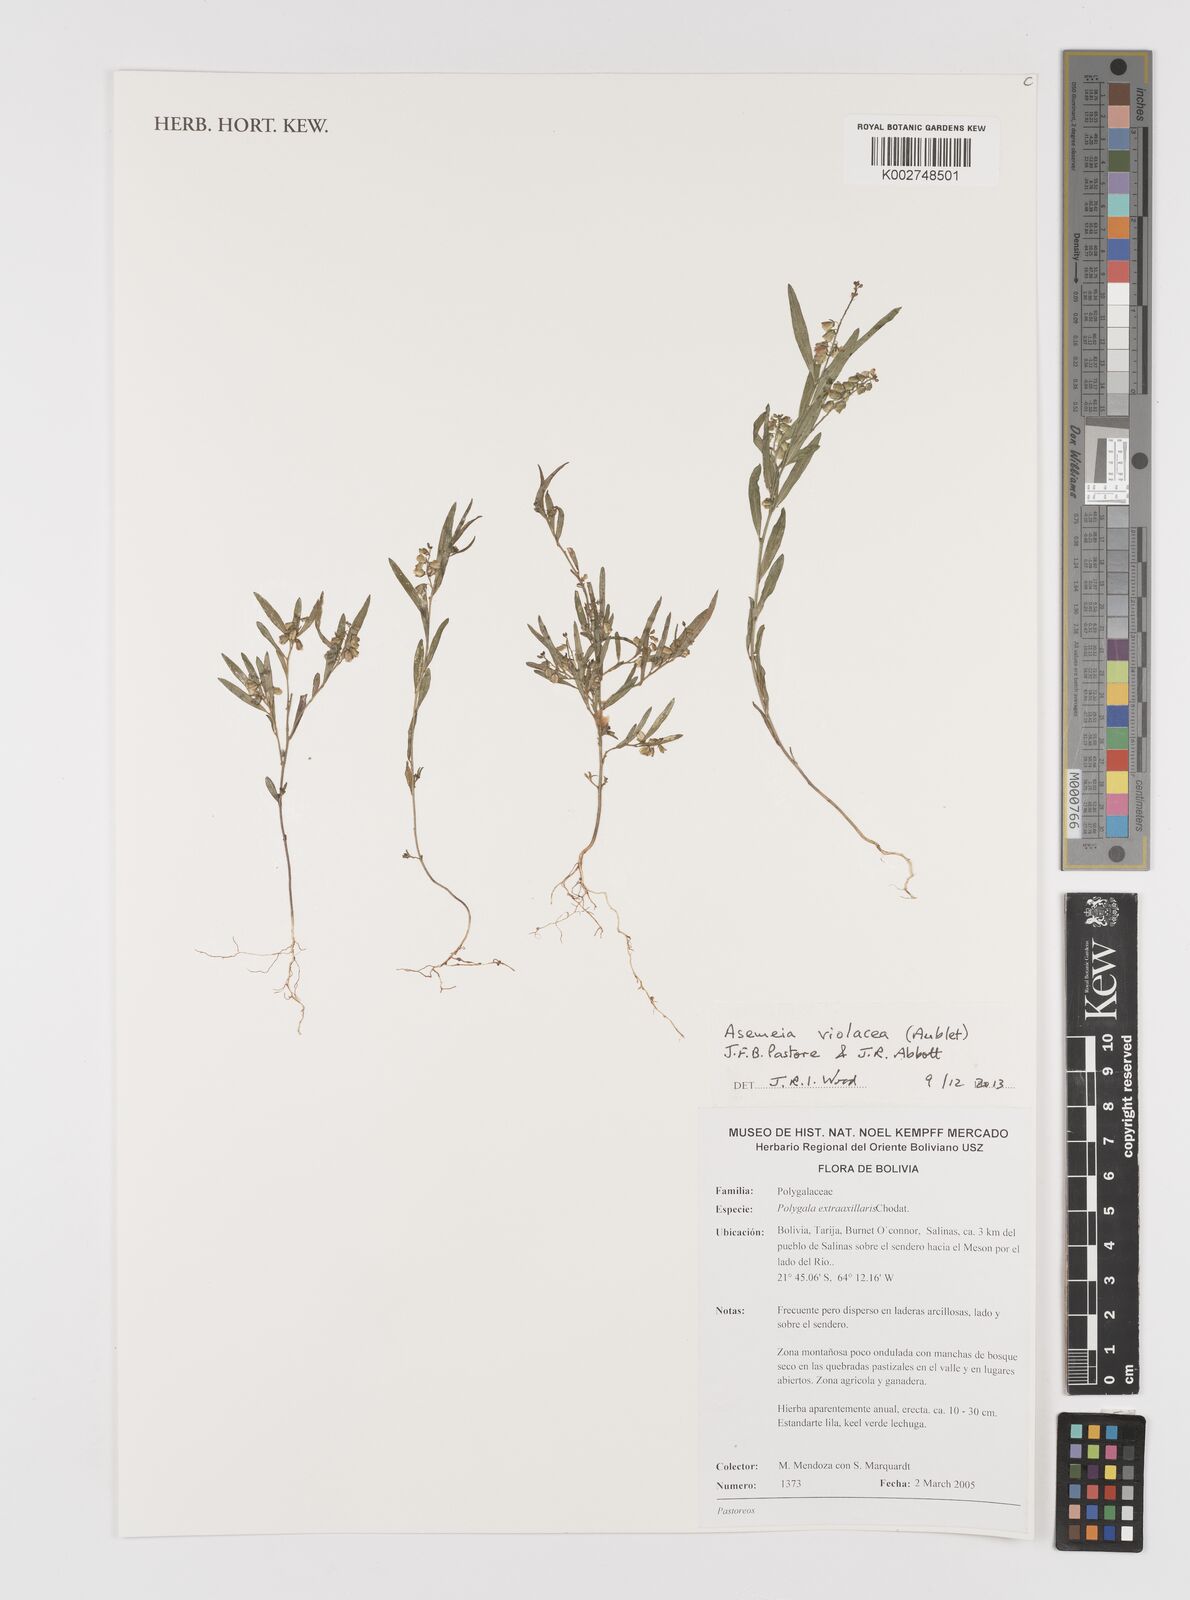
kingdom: Plantae
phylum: Tracheophyta
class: Magnoliopsida
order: Fabales
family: Polygalaceae
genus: Asemeia
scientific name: Asemeia violacea
